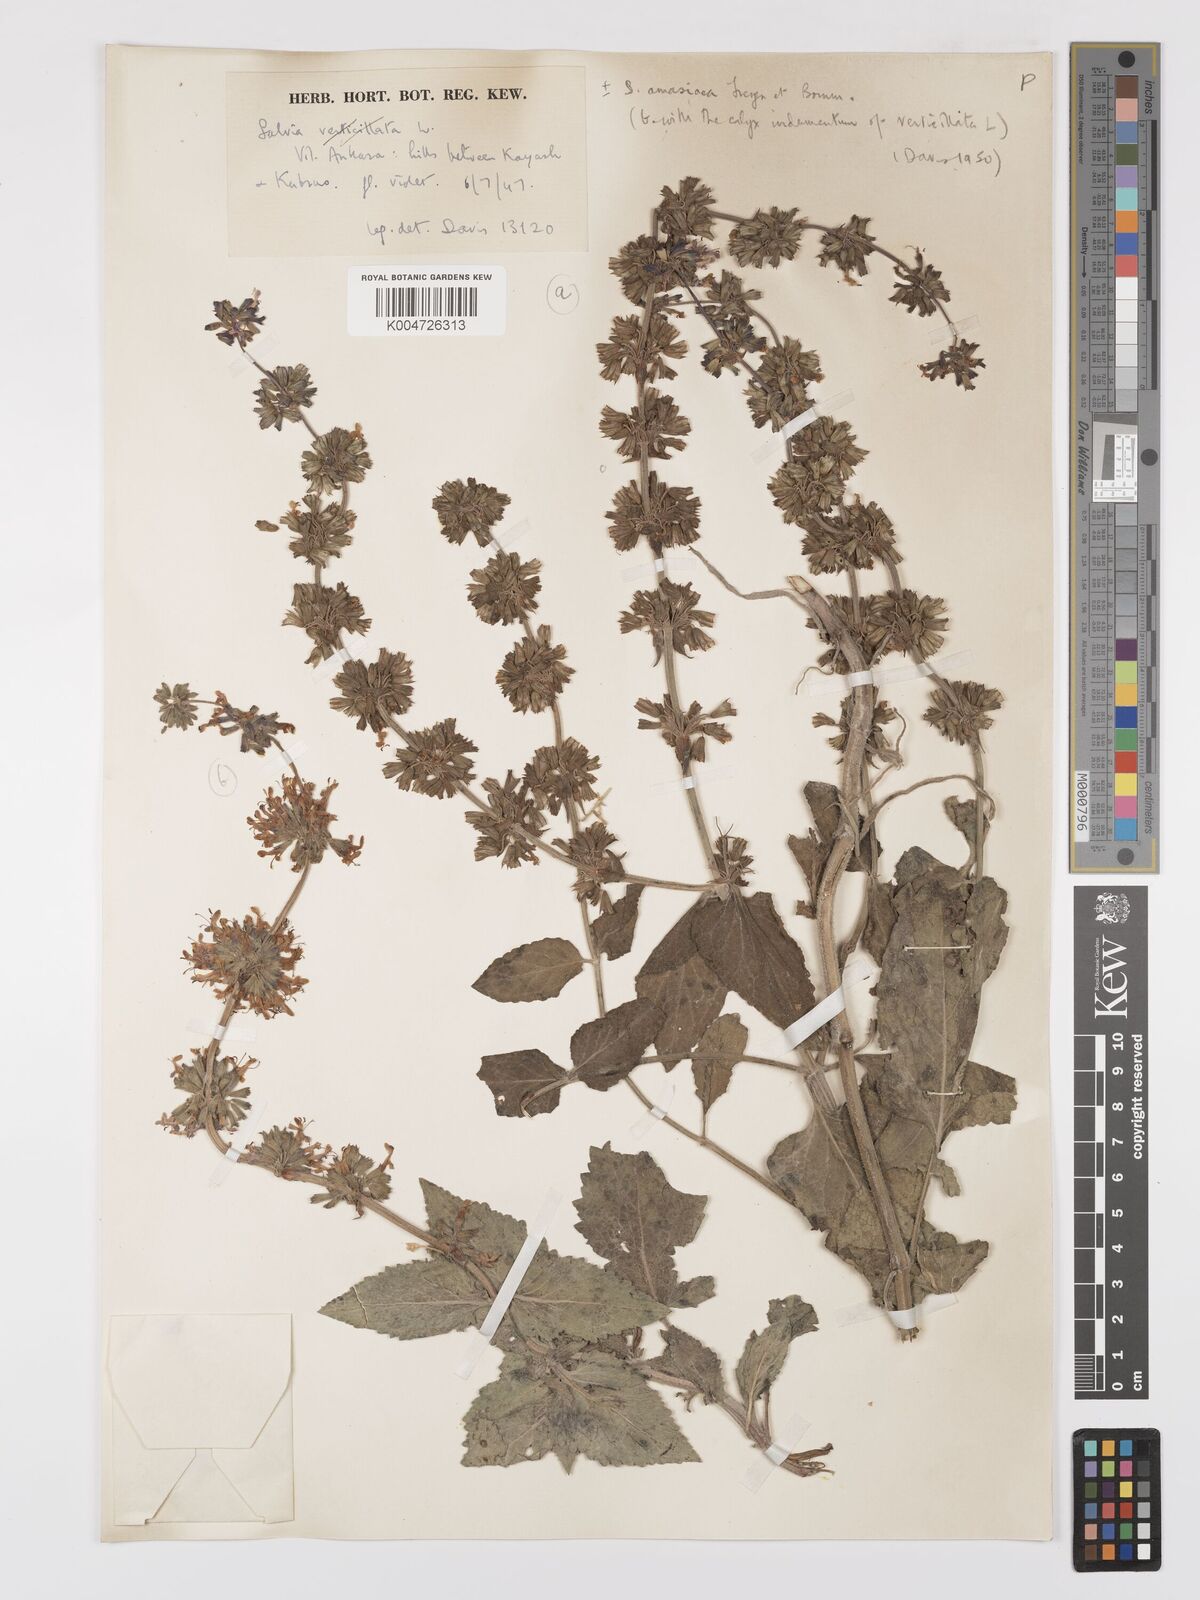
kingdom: Plantae
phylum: Tracheophyta
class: Magnoliopsida
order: Lamiales
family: Lamiaceae
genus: Salvia
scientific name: Salvia verticillata
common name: Whorled clary
